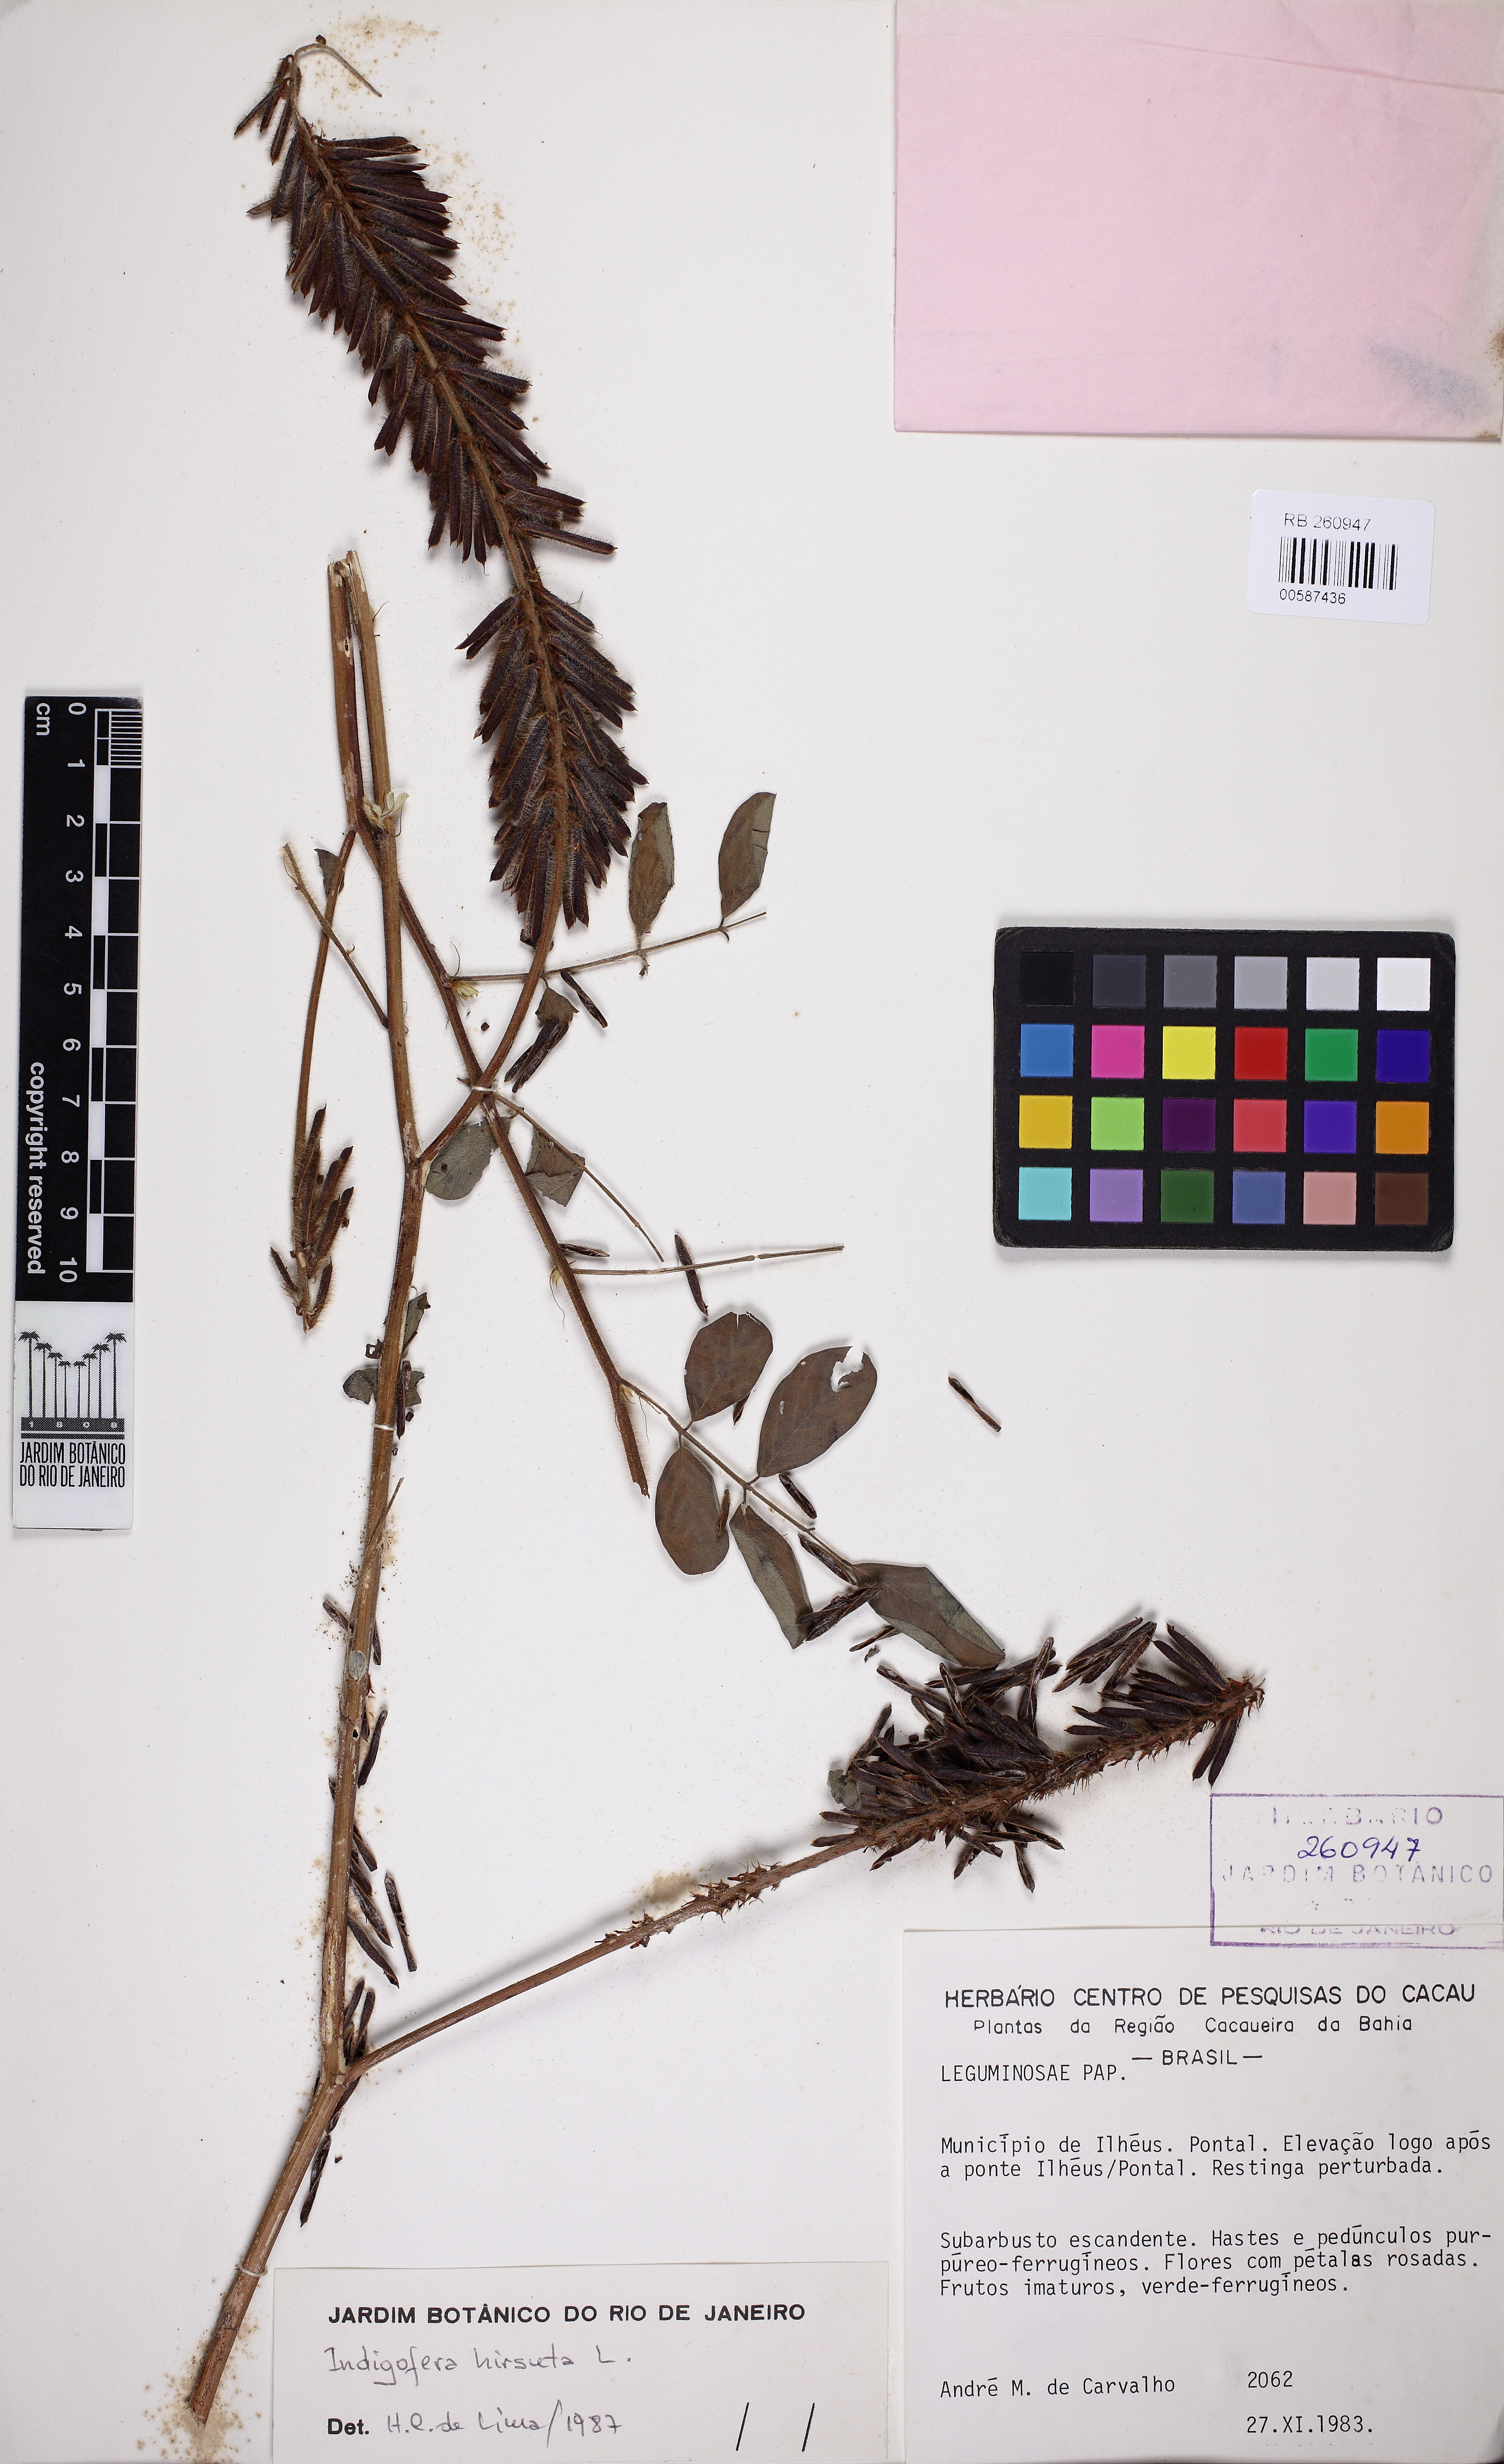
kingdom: Plantae
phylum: Tracheophyta
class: Magnoliopsida
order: Fabales
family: Fabaceae
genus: Indigofera
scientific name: Indigofera hirsuta
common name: Hairy indigo
